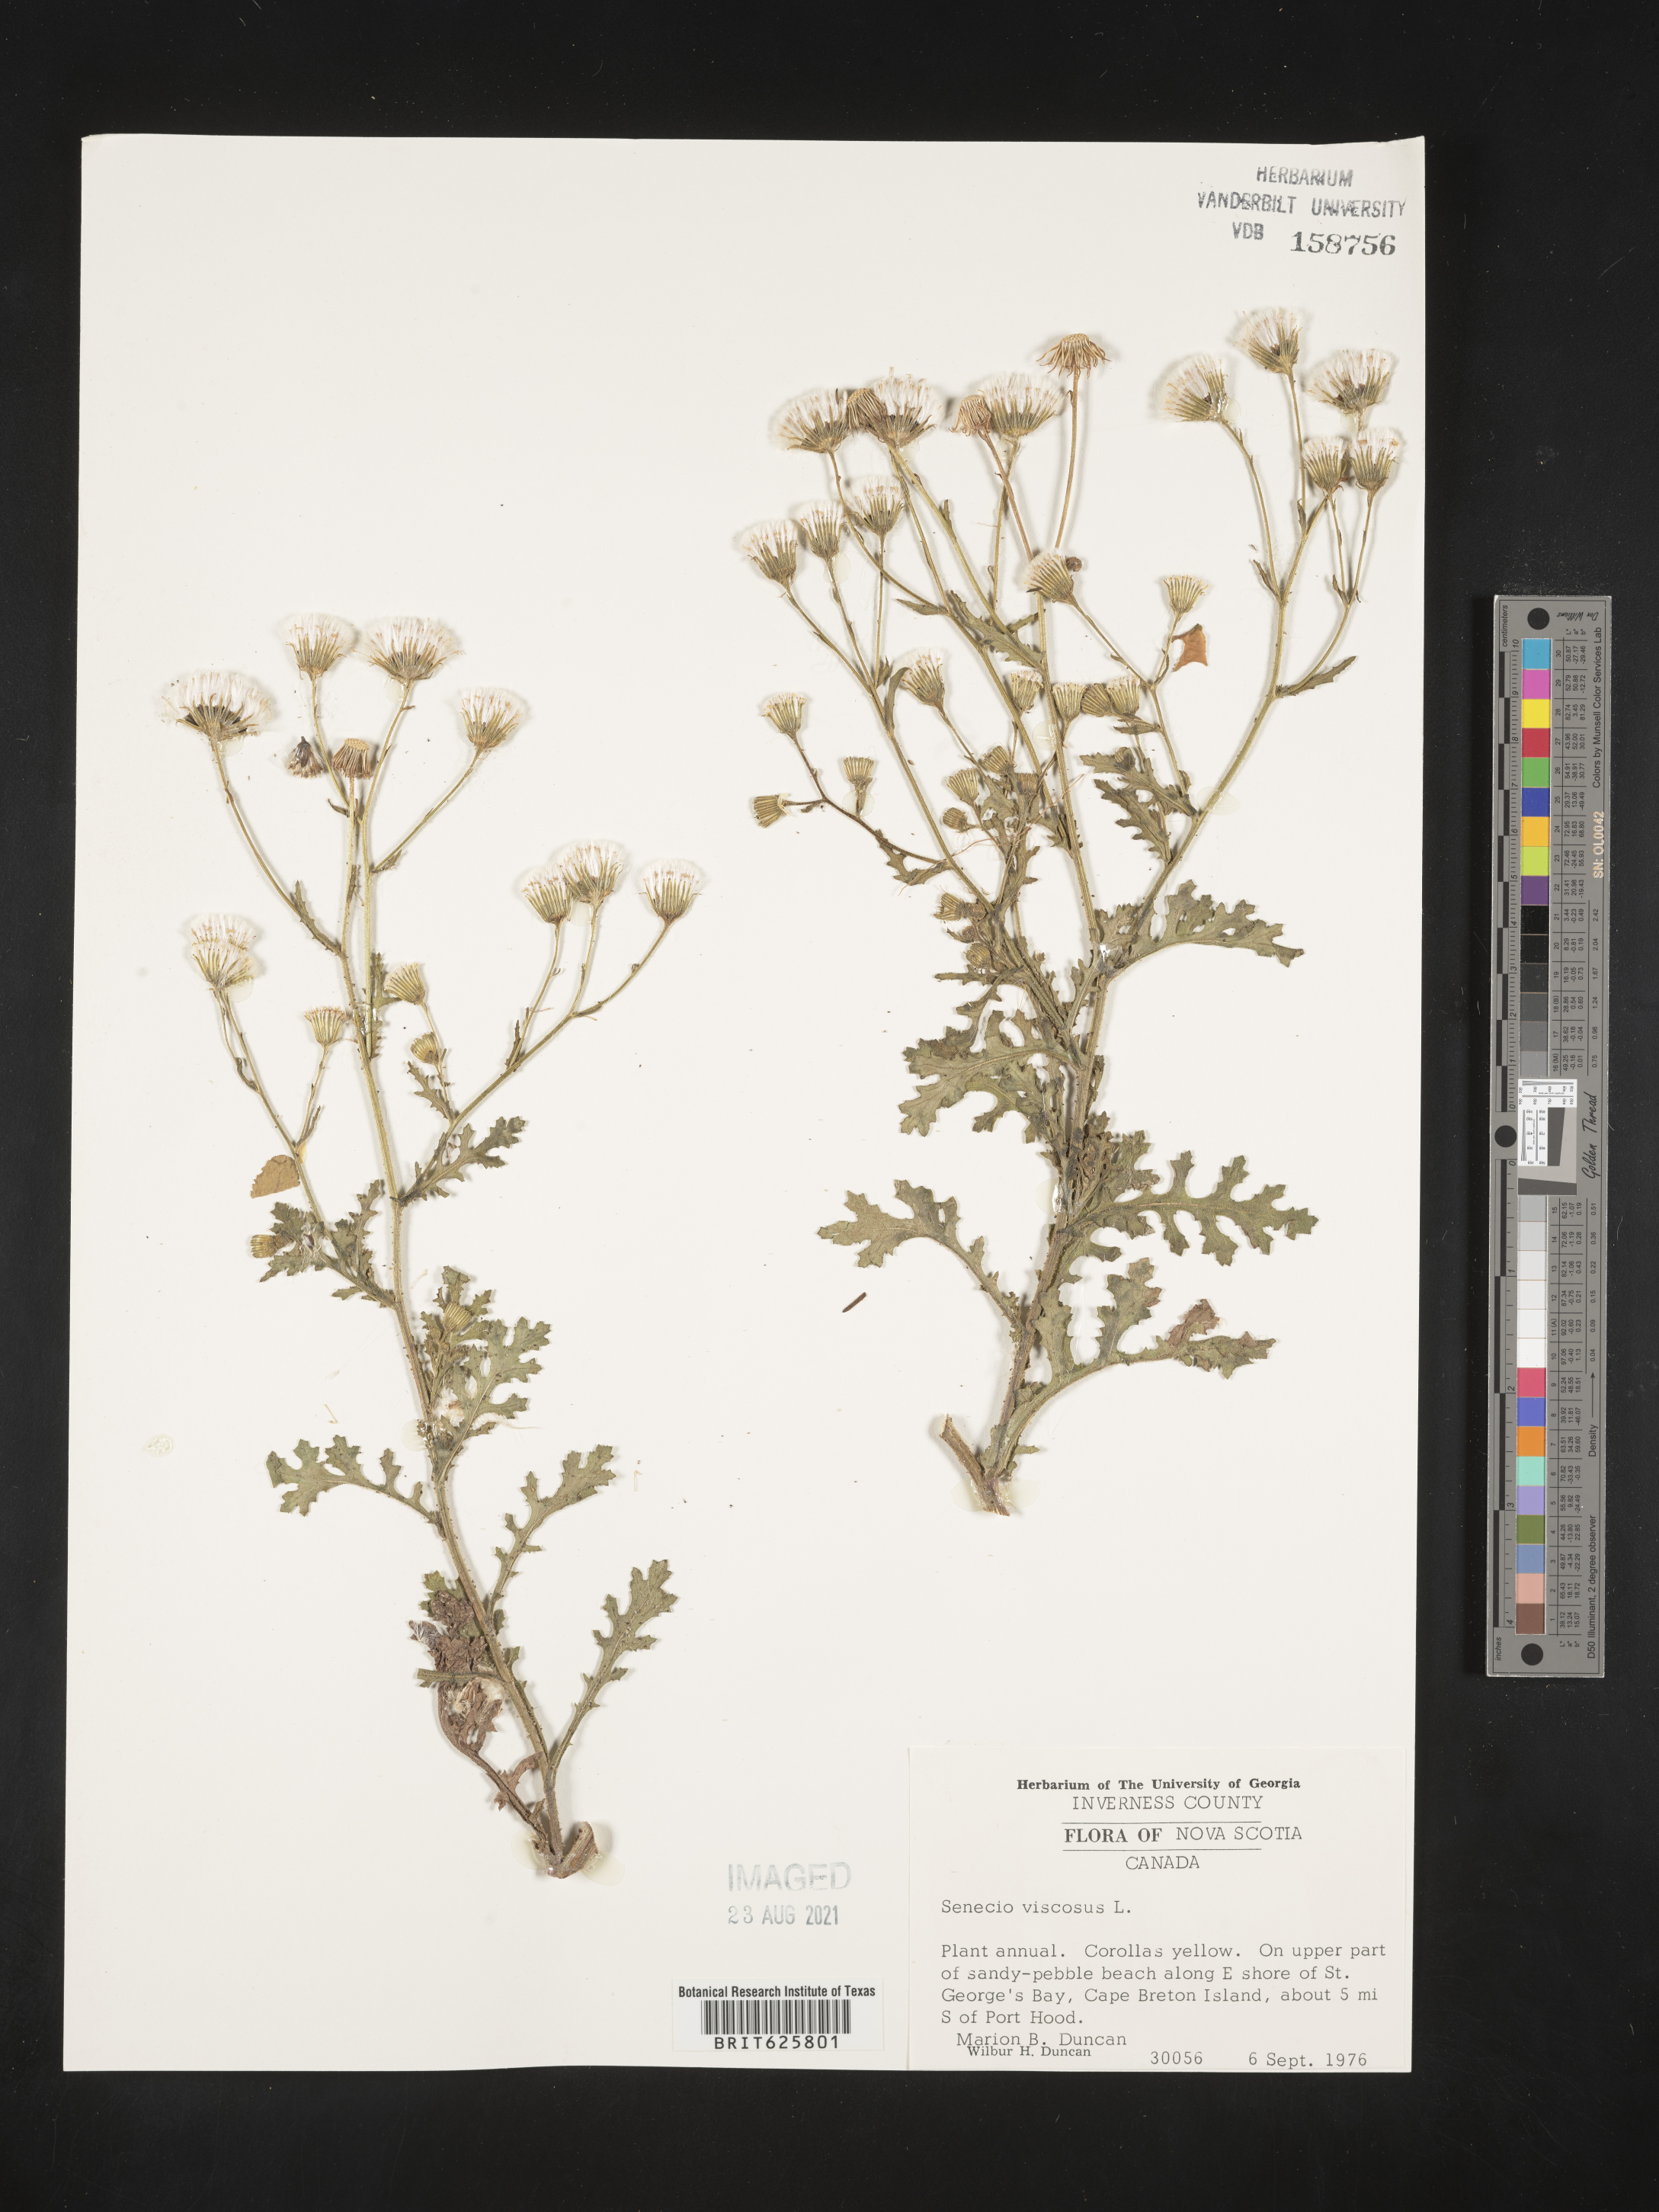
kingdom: Plantae
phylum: Tracheophyta
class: Magnoliopsida
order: Asterales
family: Asteraceae
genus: Senecio
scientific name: Senecio viscosus
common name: Sticky groundsel
